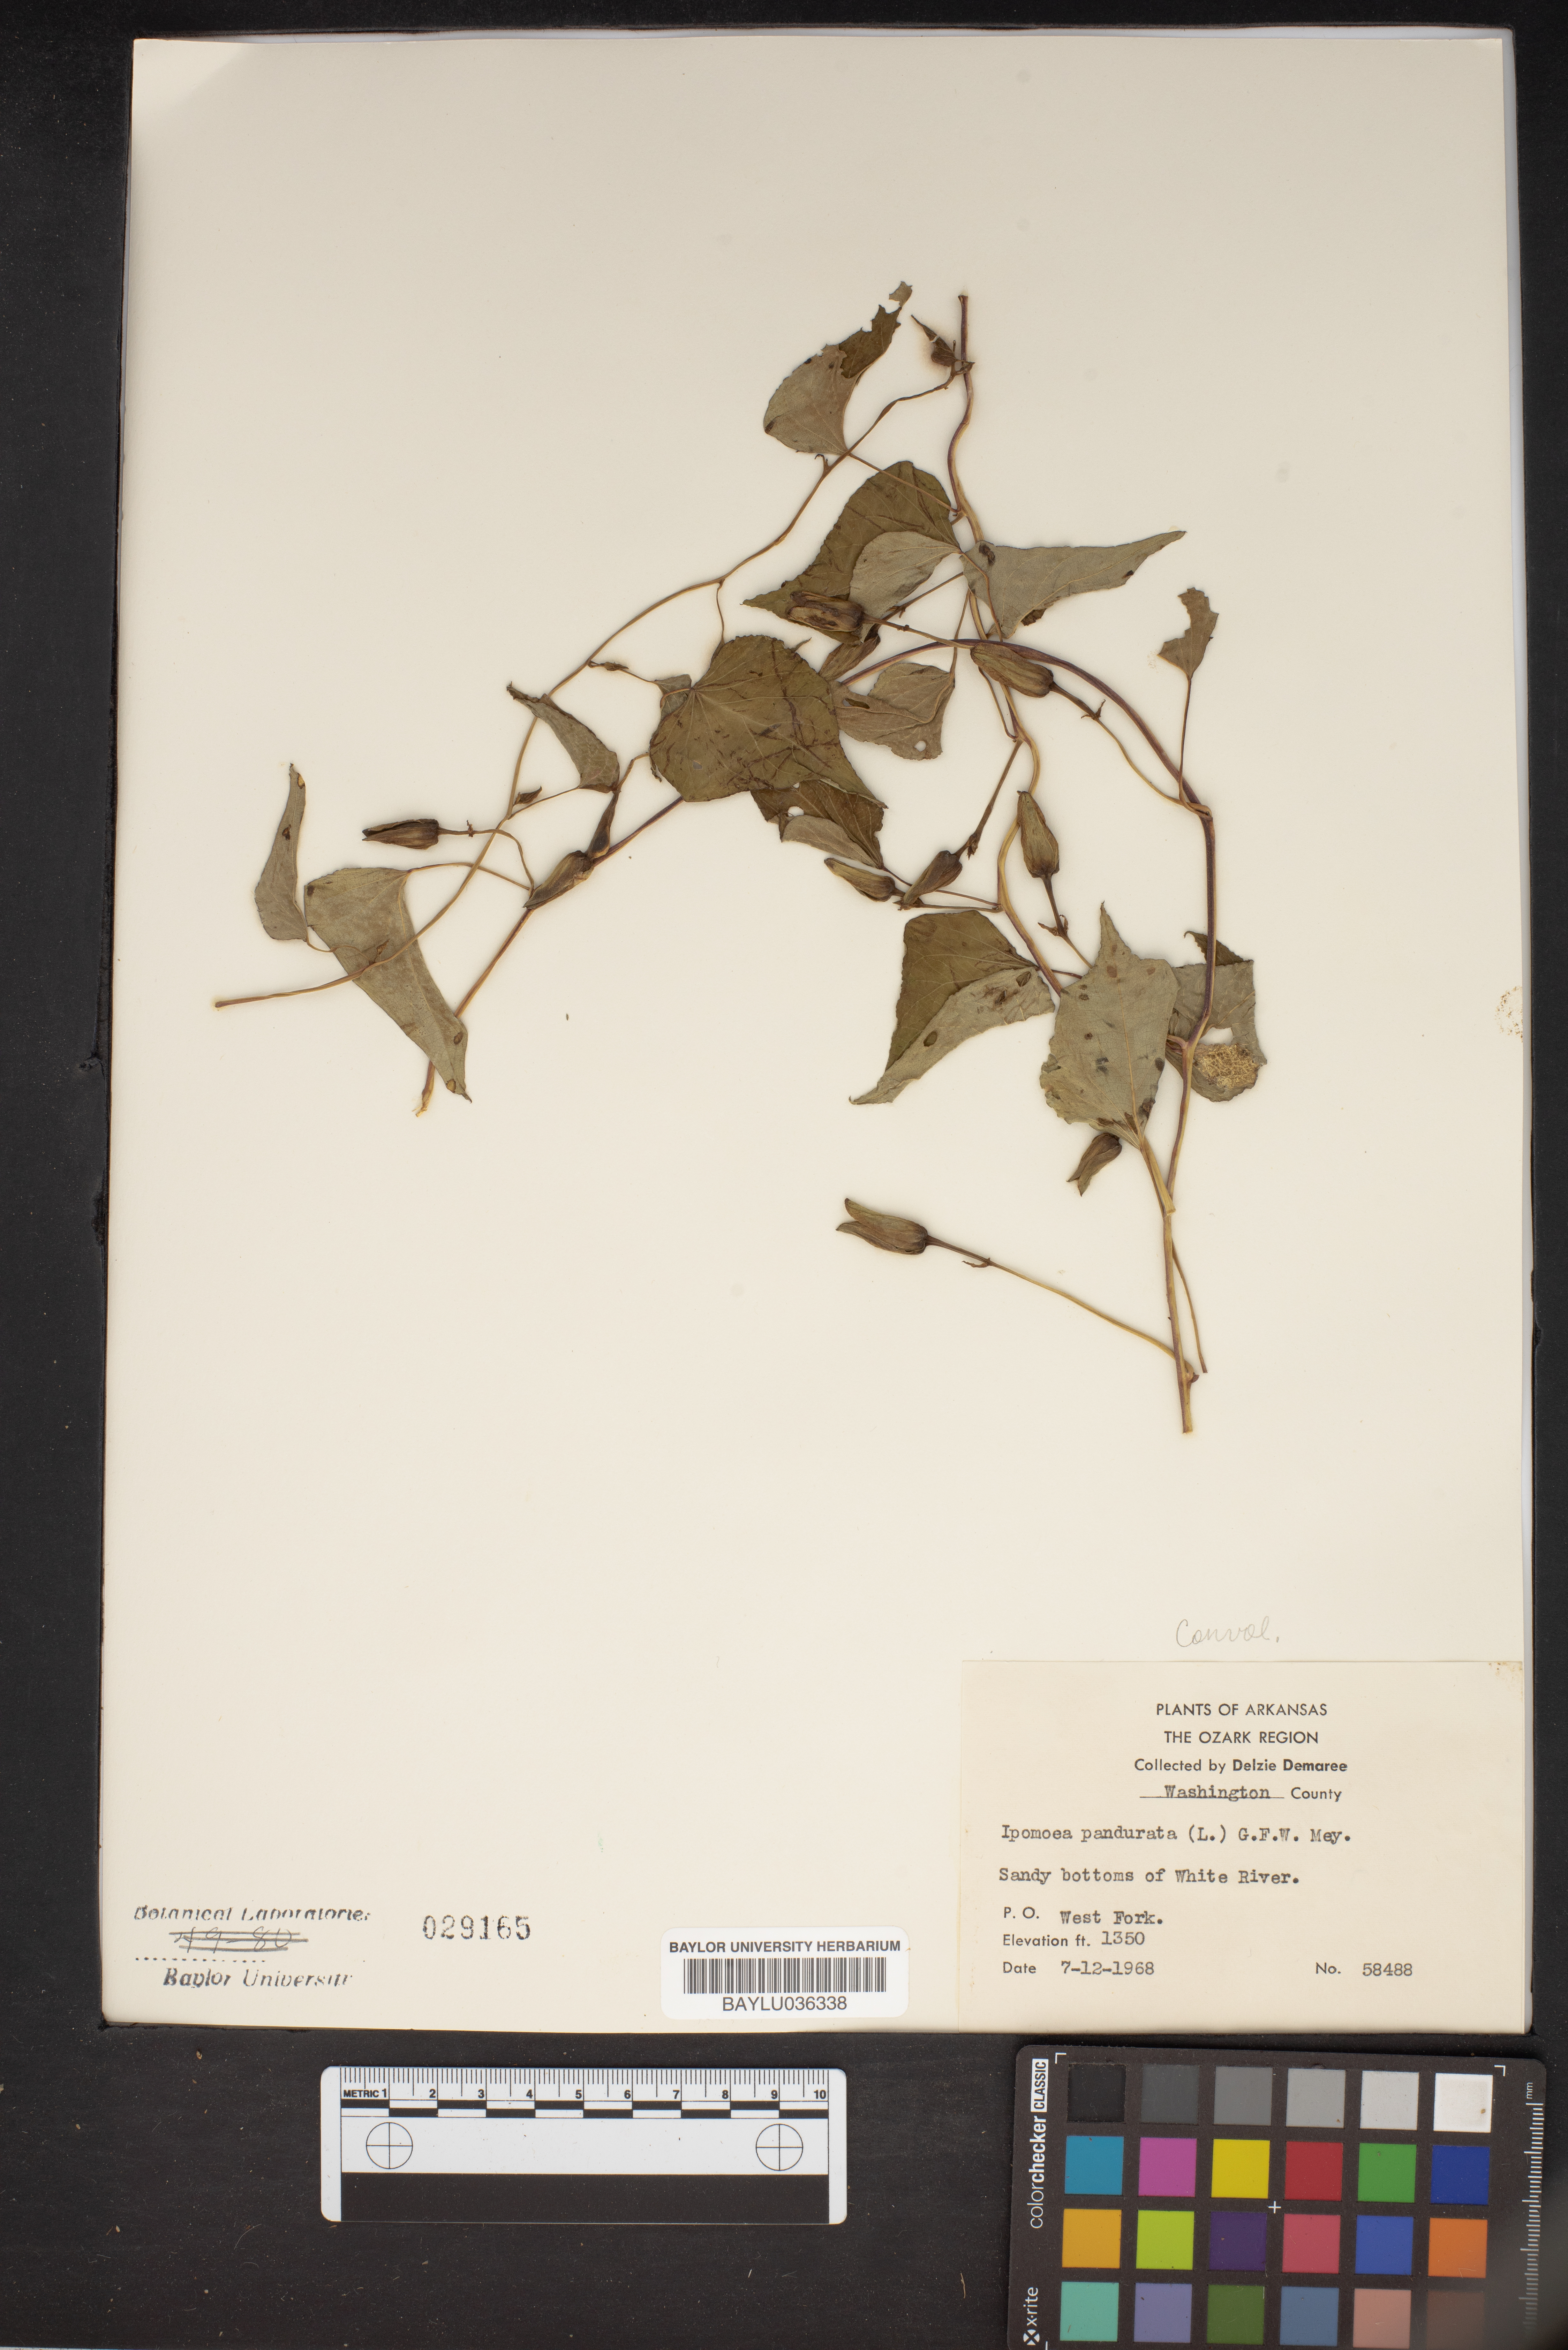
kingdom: Plantae
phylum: Tracheophyta
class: Magnoliopsida
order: Solanales
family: Convolvulaceae
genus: Ipomoea
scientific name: Ipomoea pandurata
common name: Man-of-the-earth
